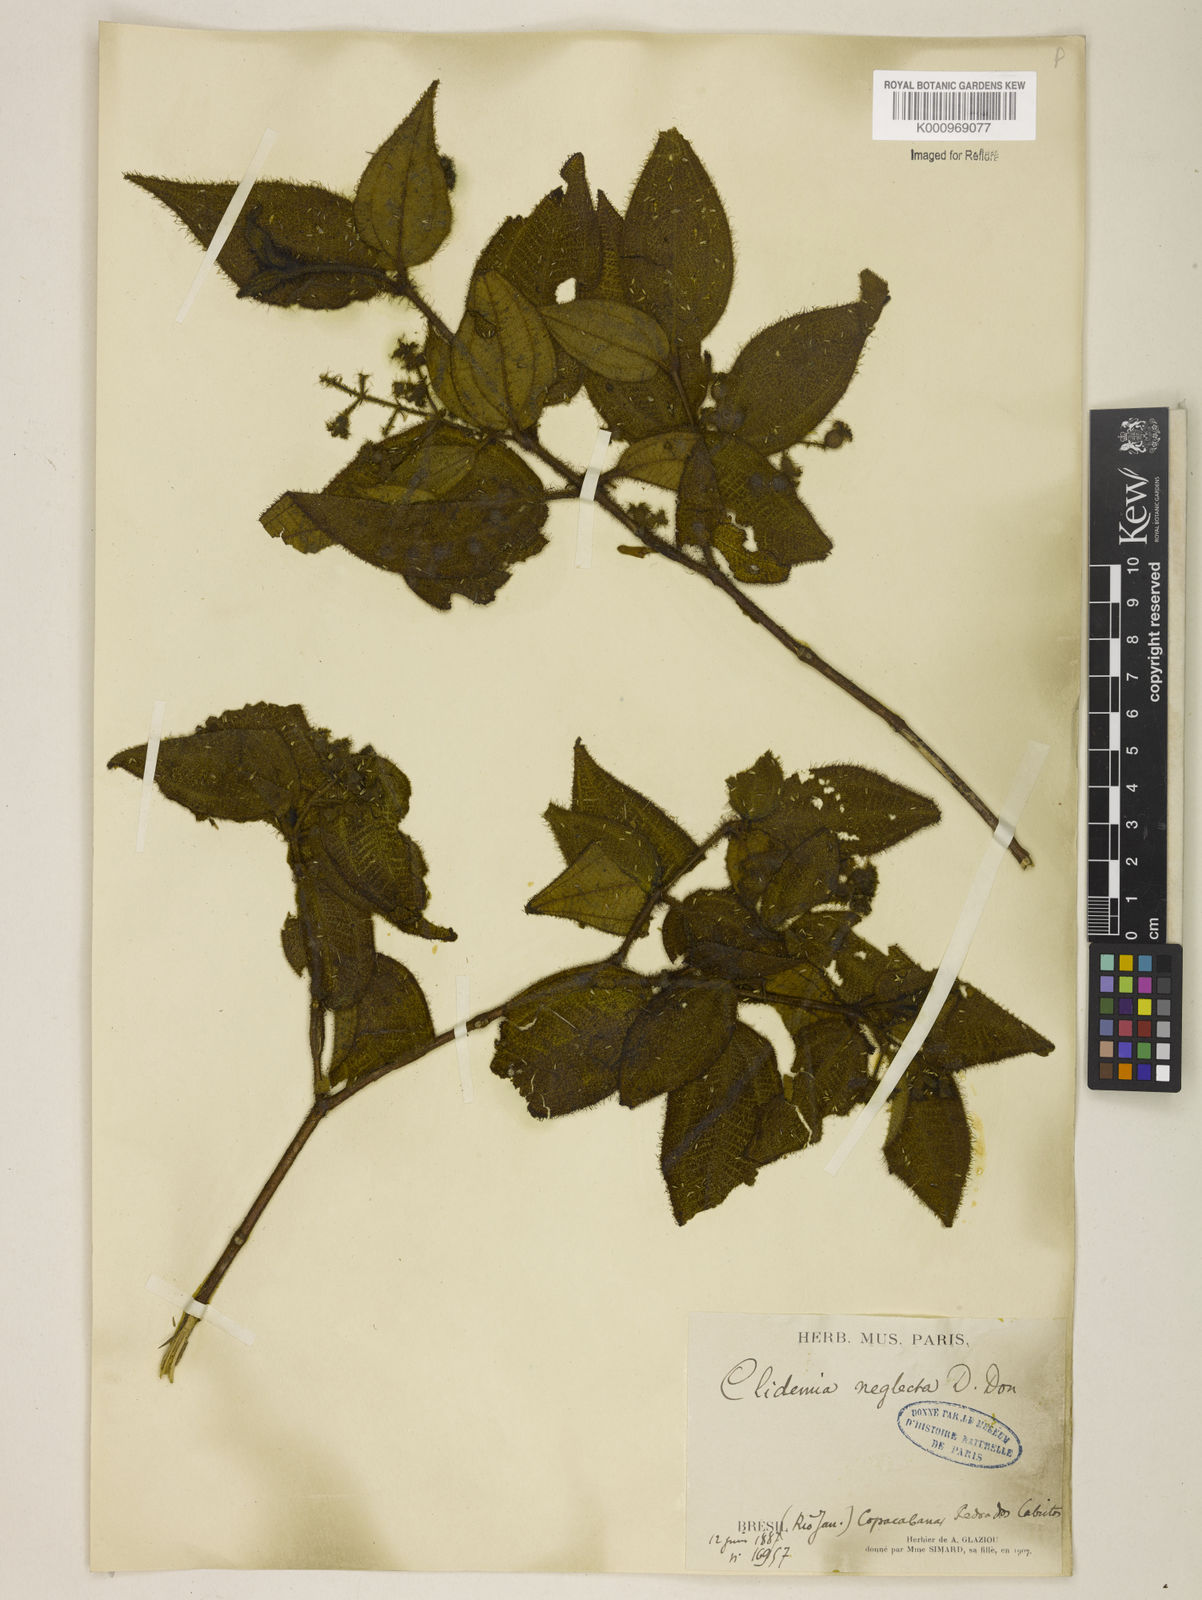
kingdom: Plantae
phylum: Tracheophyta
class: Magnoliopsida
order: Myrtales
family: Melastomataceae
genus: Miconia
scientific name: Miconia dependens
